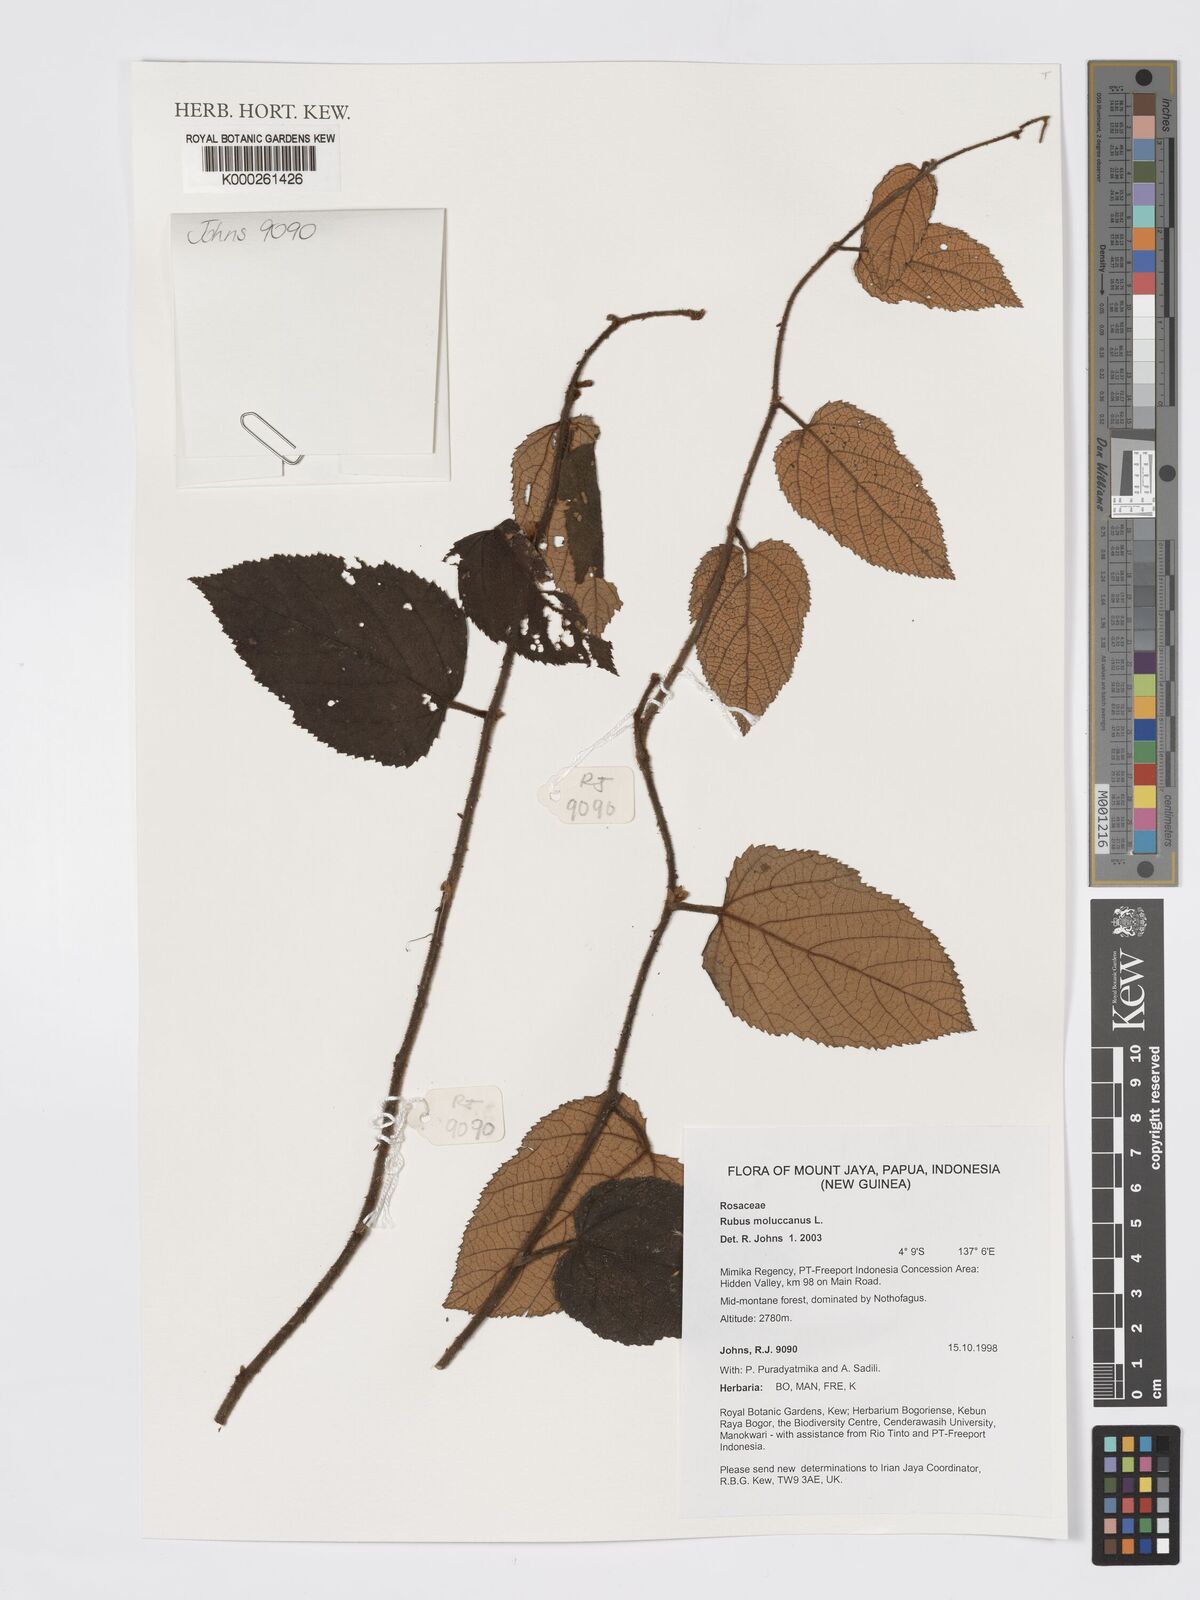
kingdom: Plantae
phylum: Tracheophyta
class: Magnoliopsida
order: Rosales
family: Rosaceae
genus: Rubus
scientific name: Rubus moluccanus
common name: Wild raspberry
